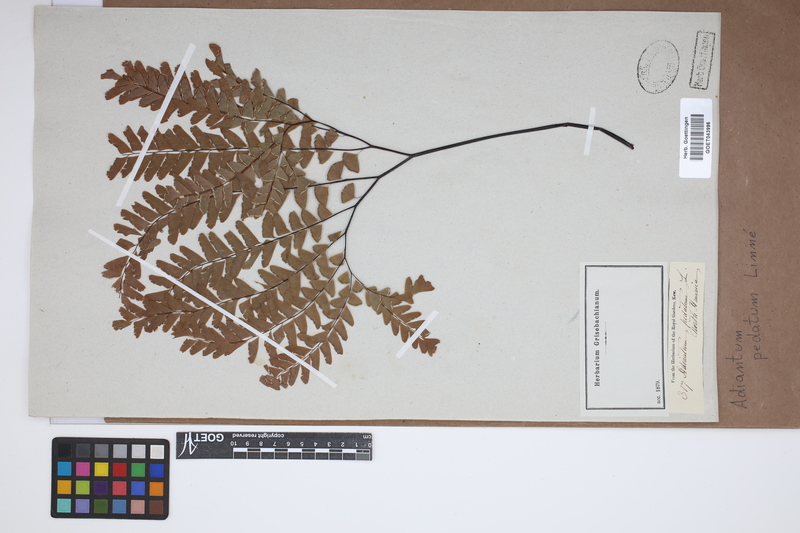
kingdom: Plantae
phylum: Tracheophyta
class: Polypodiopsida
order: Polypodiales
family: Pteridaceae
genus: Adiantum
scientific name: Adiantum pedatum
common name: Five-finger fern
